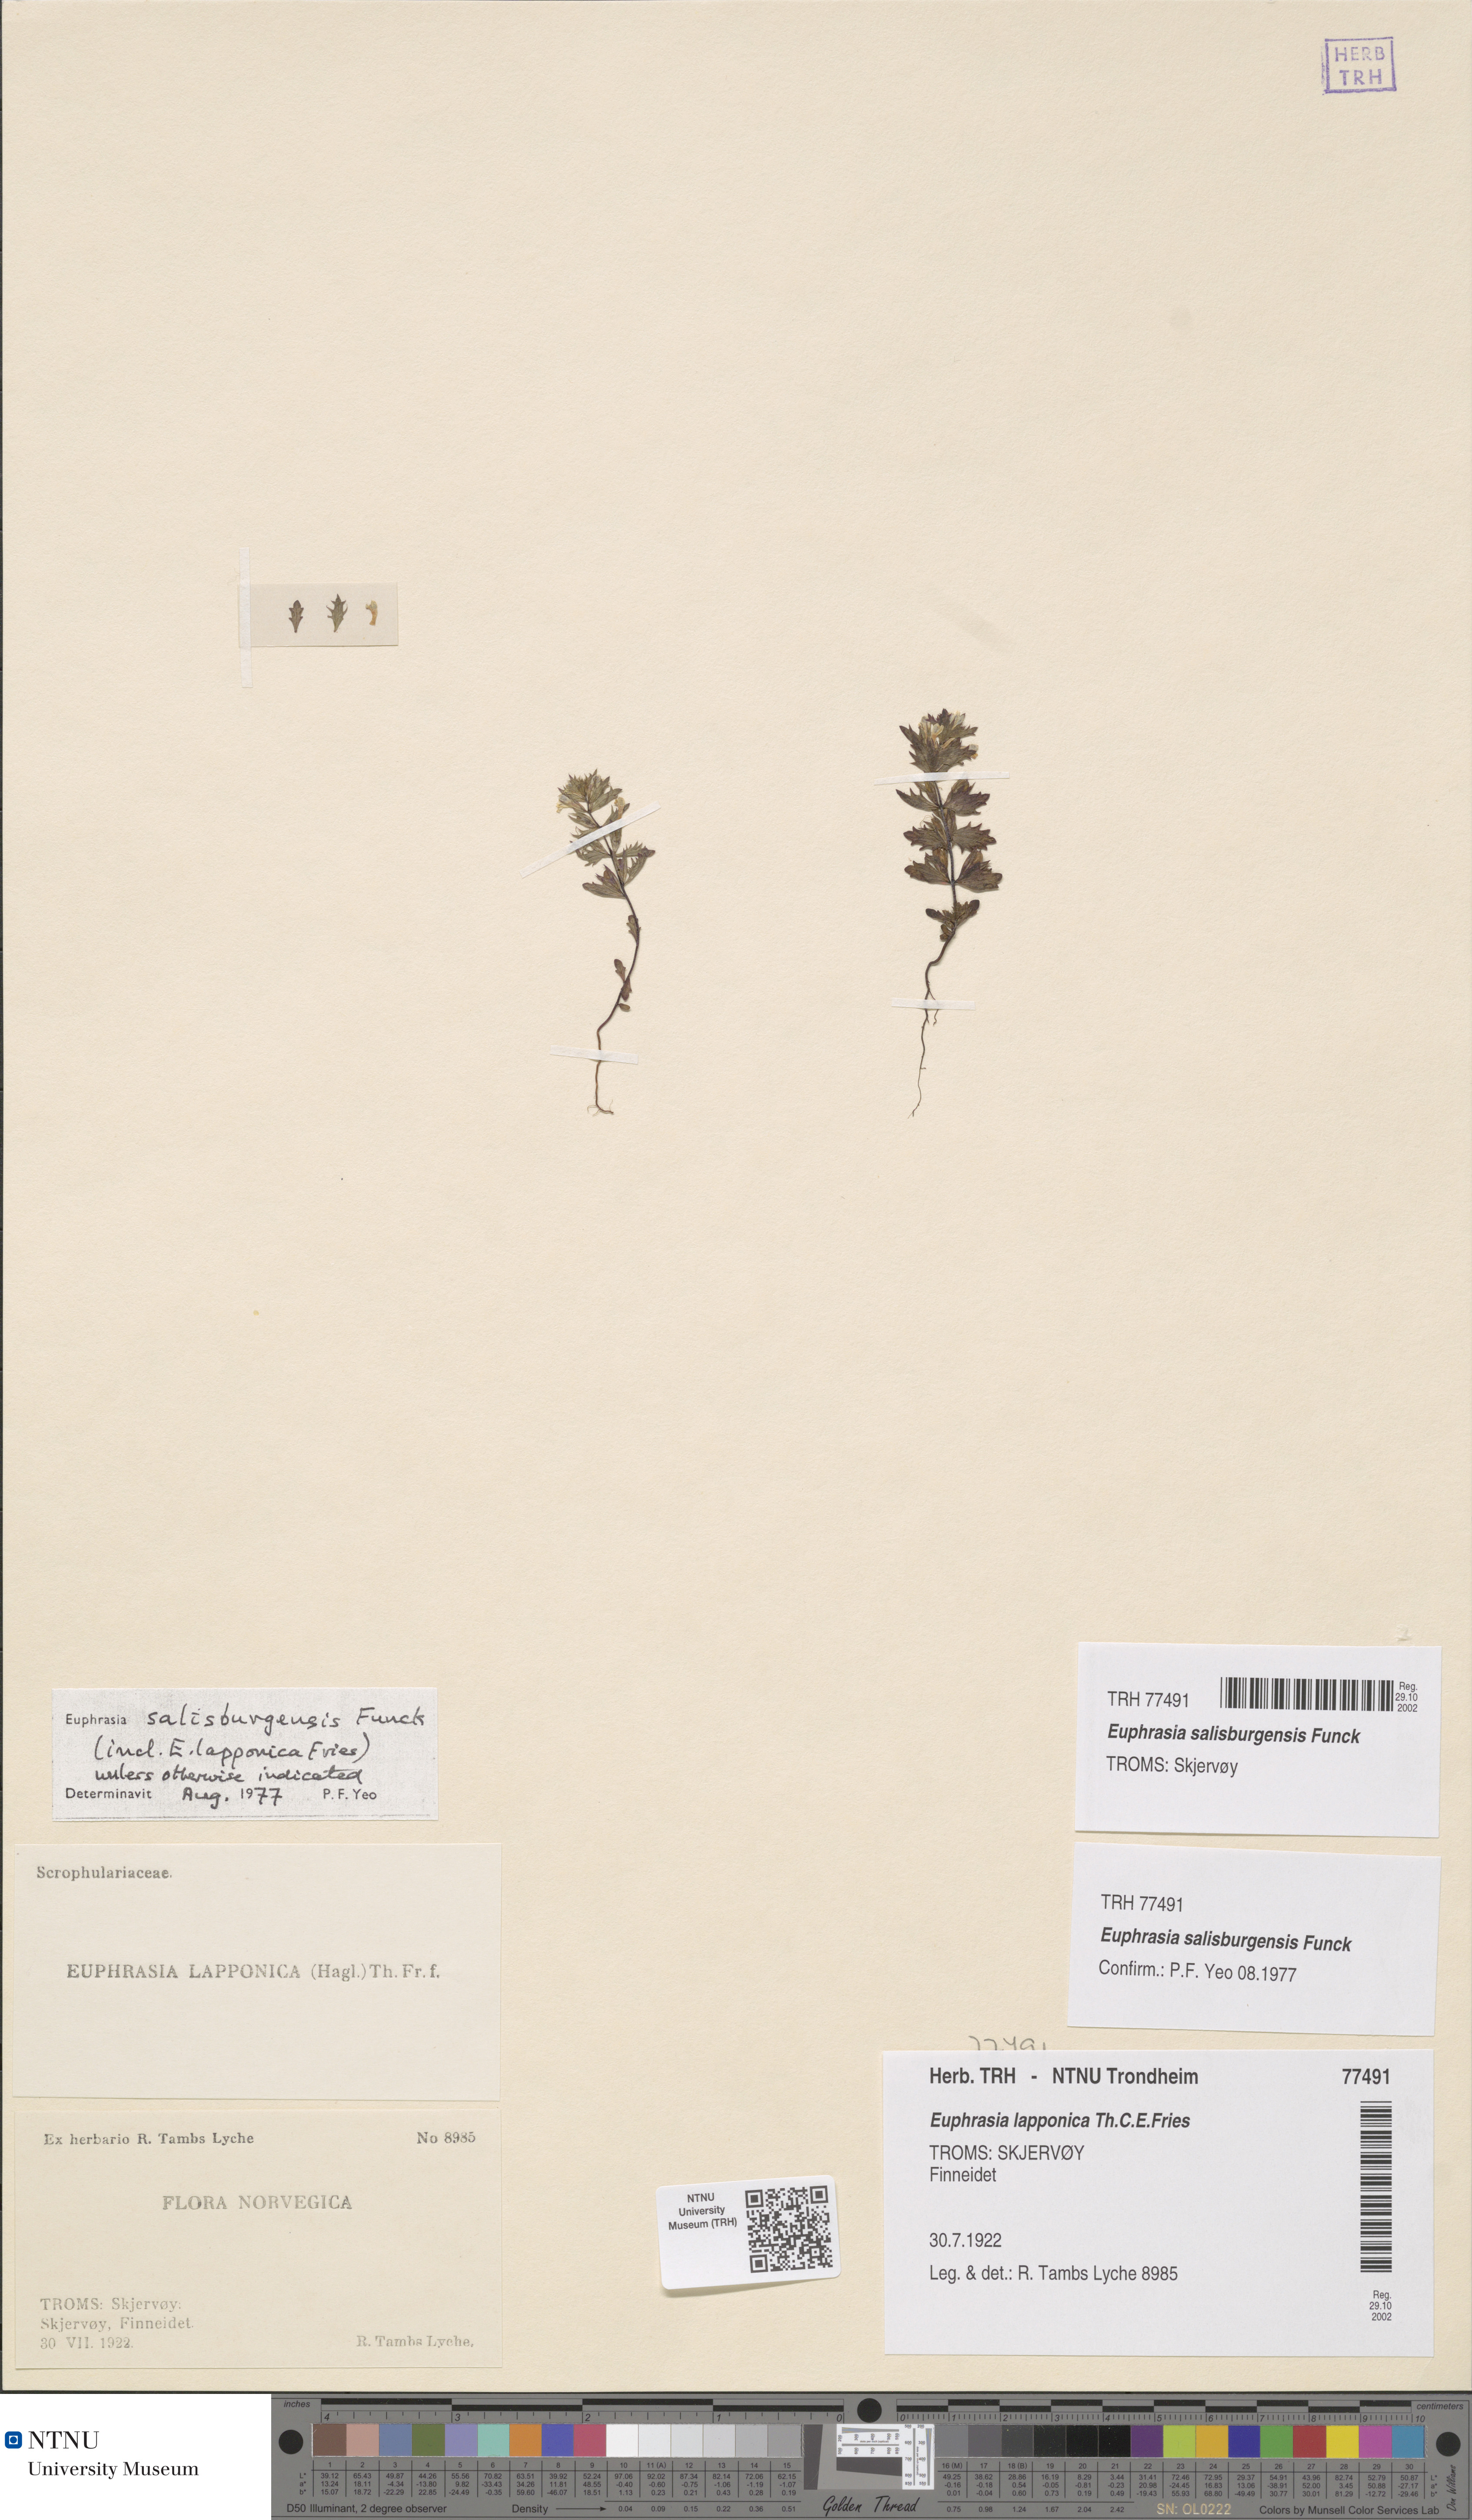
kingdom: Plantae
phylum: Tracheophyta
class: Magnoliopsida
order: Lamiales
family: Orobanchaceae
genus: Euphrasia
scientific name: Euphrasia salisburgensis
